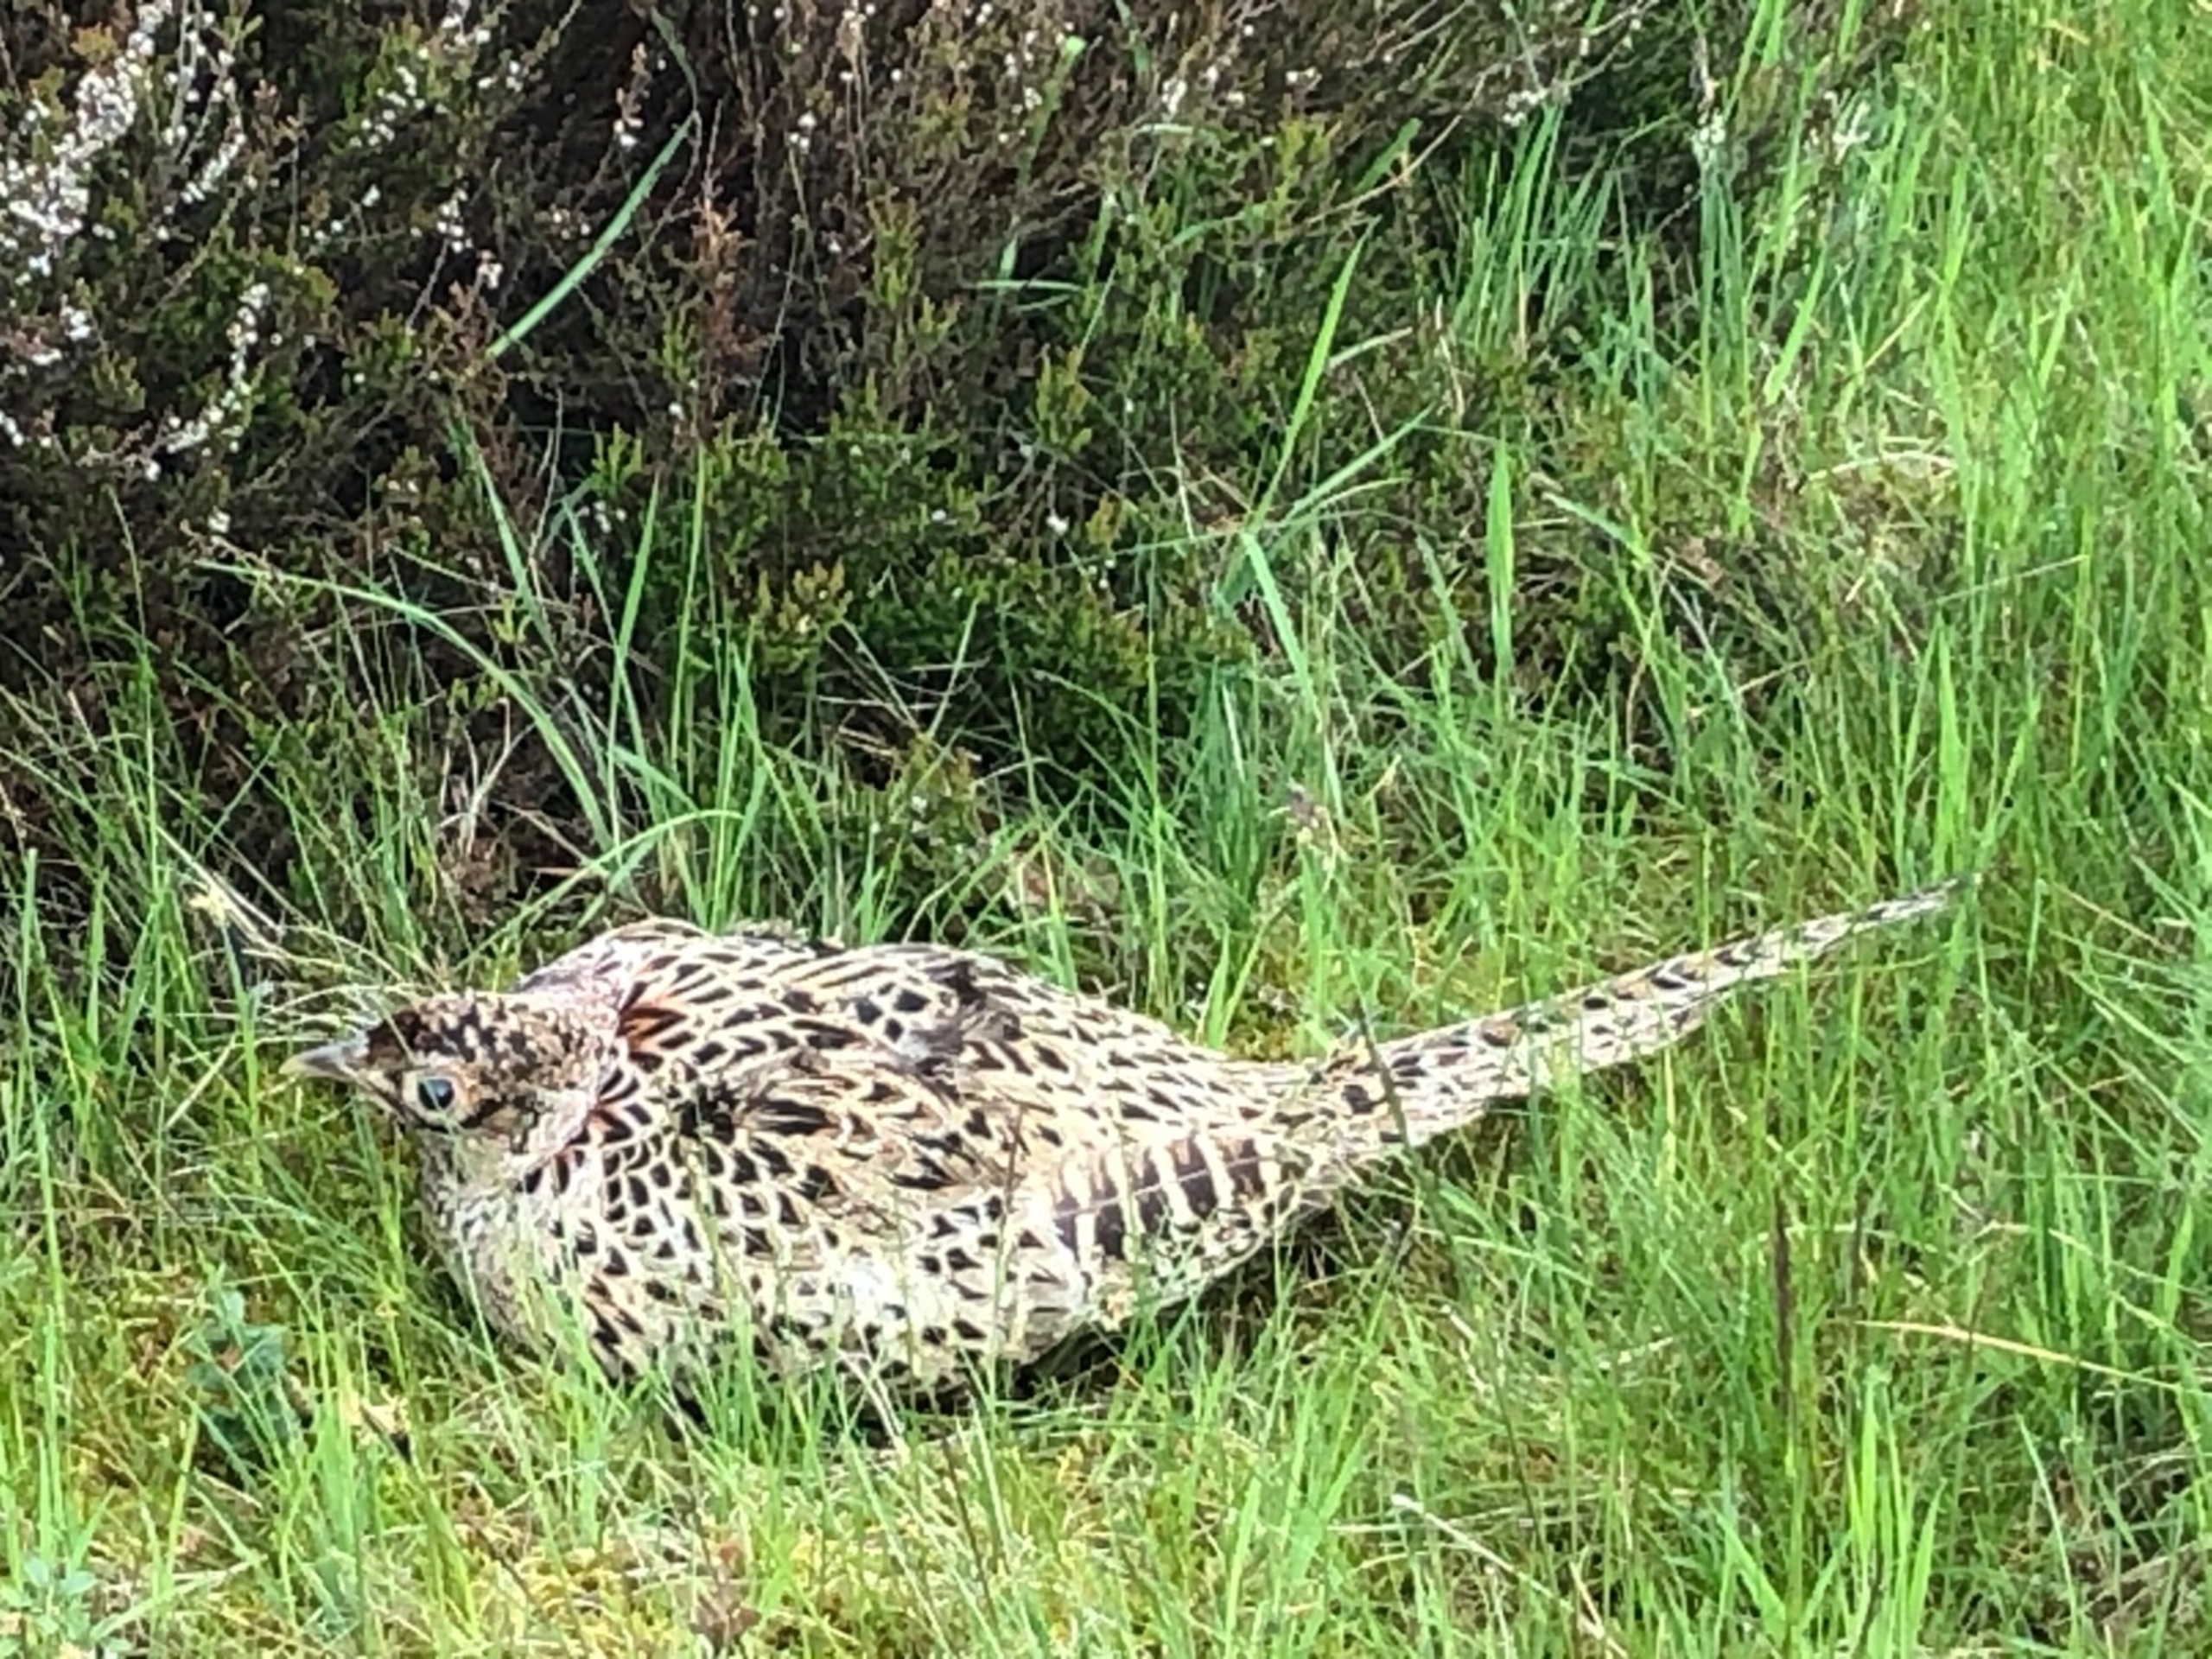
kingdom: Animalia
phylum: Chordata
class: Aves
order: Galliformes
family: Phasianidae
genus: Phasianus
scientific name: Phasianus colchicus
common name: Fasan
